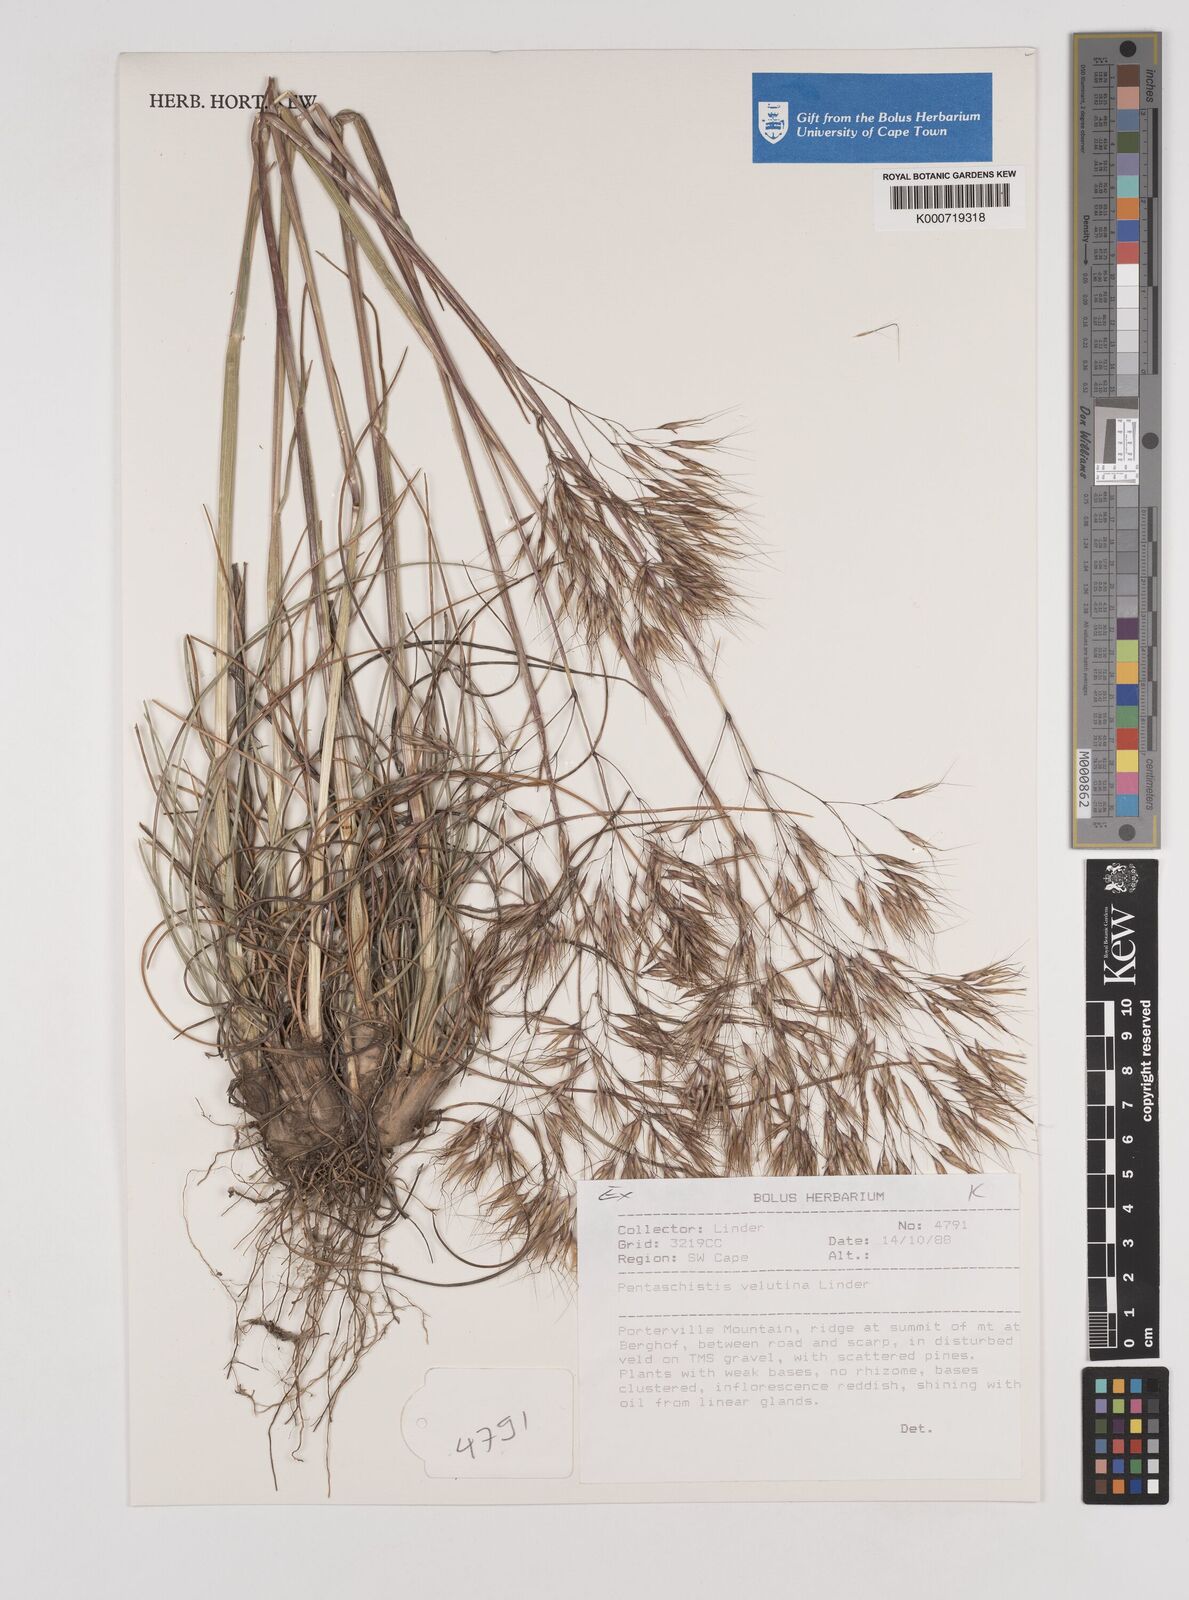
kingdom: Plantae
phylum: Tracheophyta
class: Liliopsida
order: Poales
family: Poaceae
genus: Pentameris
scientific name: Pentameris velutina
